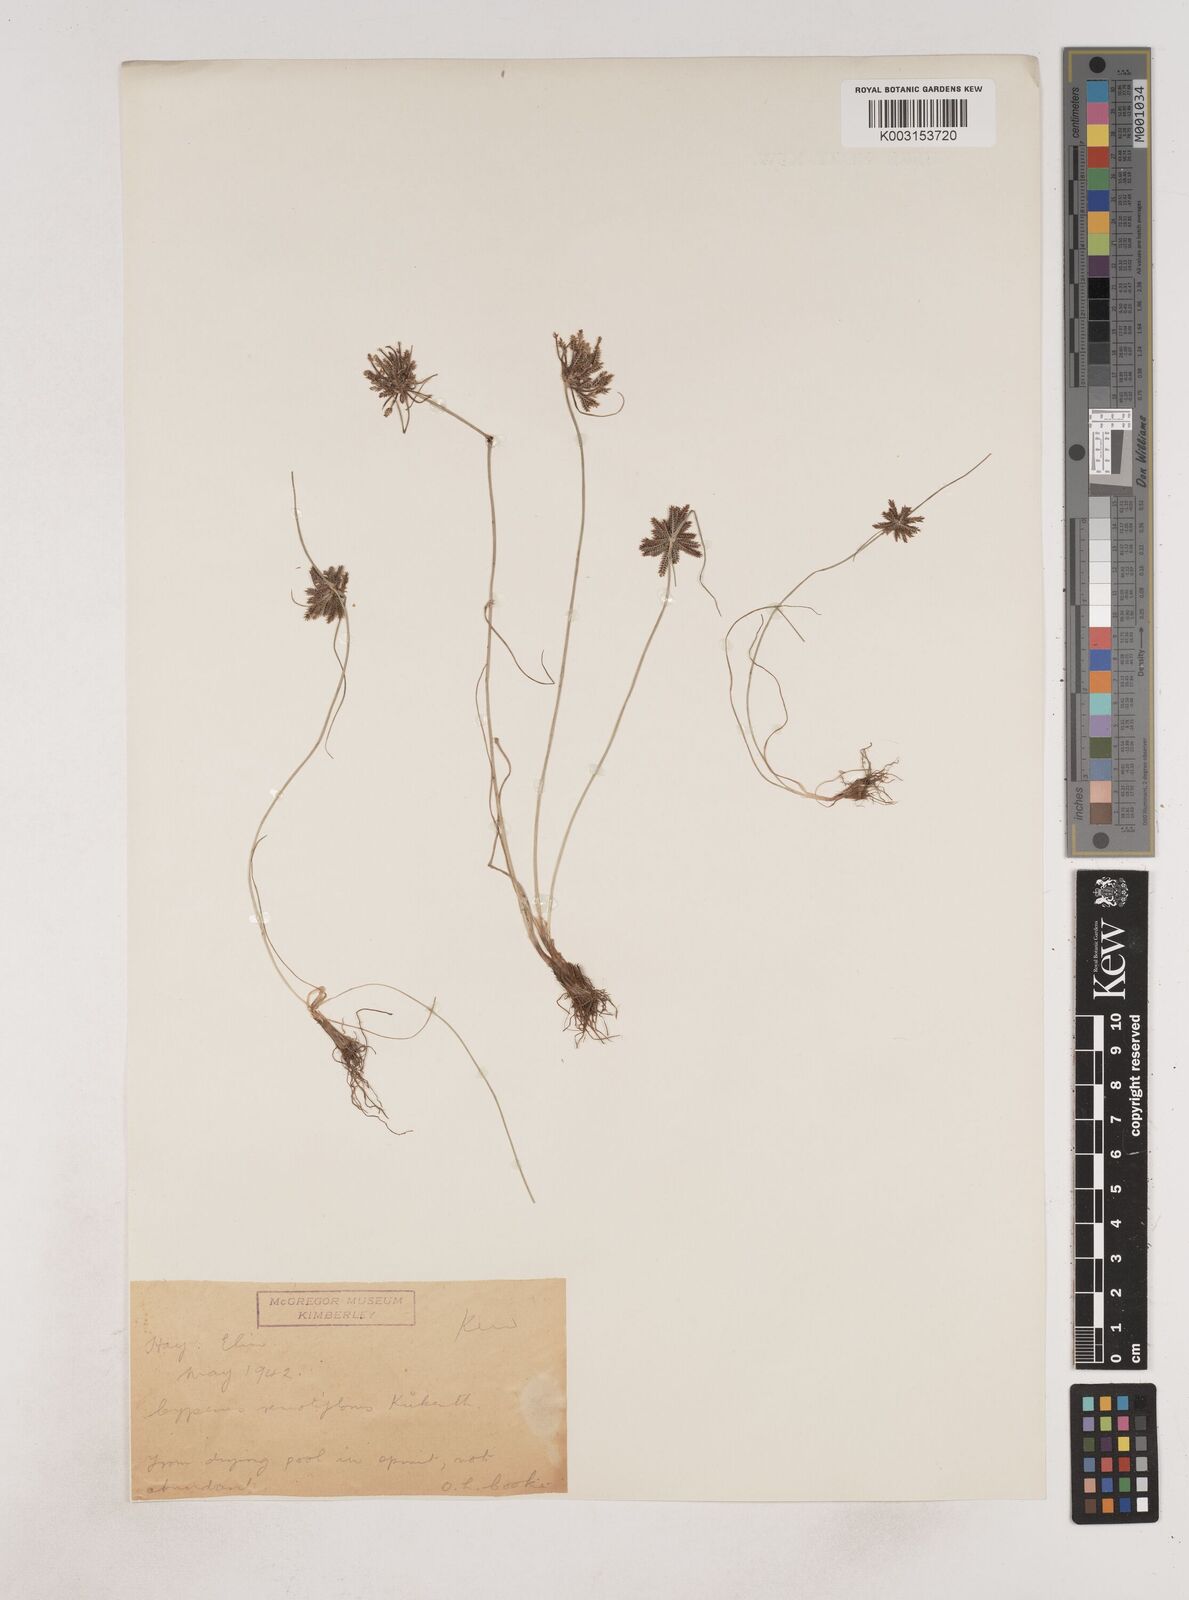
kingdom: Plantae
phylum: Tracheophyta
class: Liliopsida
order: Poales
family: Cyperaceae
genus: Cyperus
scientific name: Cyperus remotiflorus
